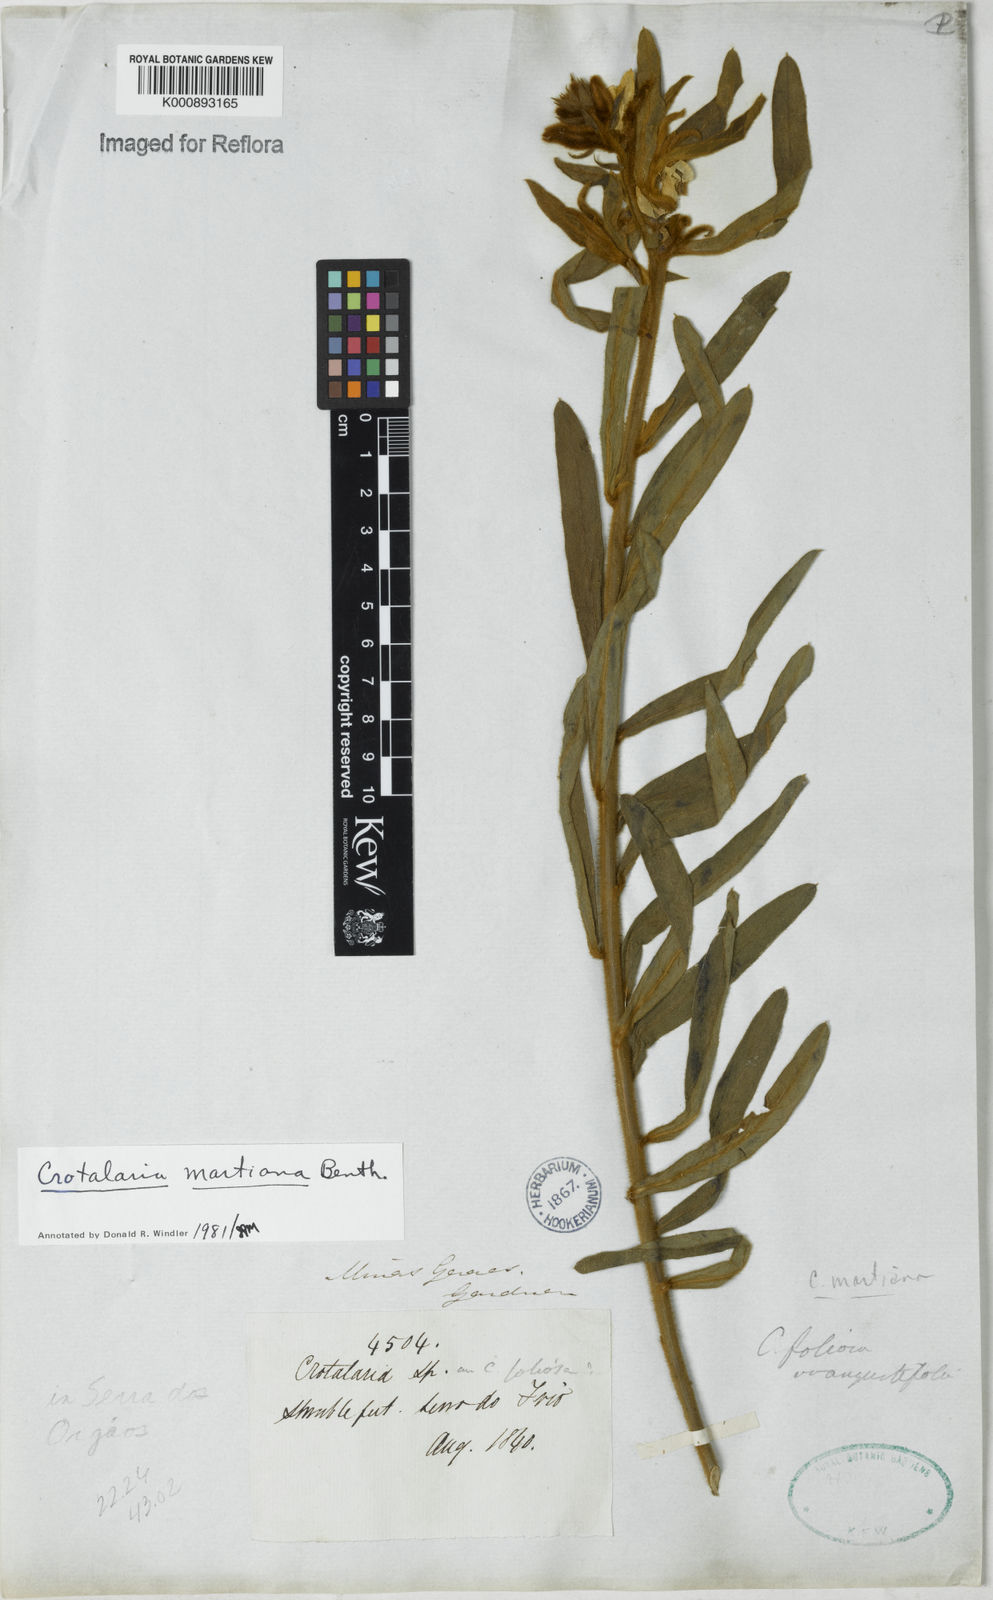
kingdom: Plantae
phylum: Tracheophyta
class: Magnoliopsida
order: Fabales
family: Fabaceae
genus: Crotalaria
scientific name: Crotalaria martiana
